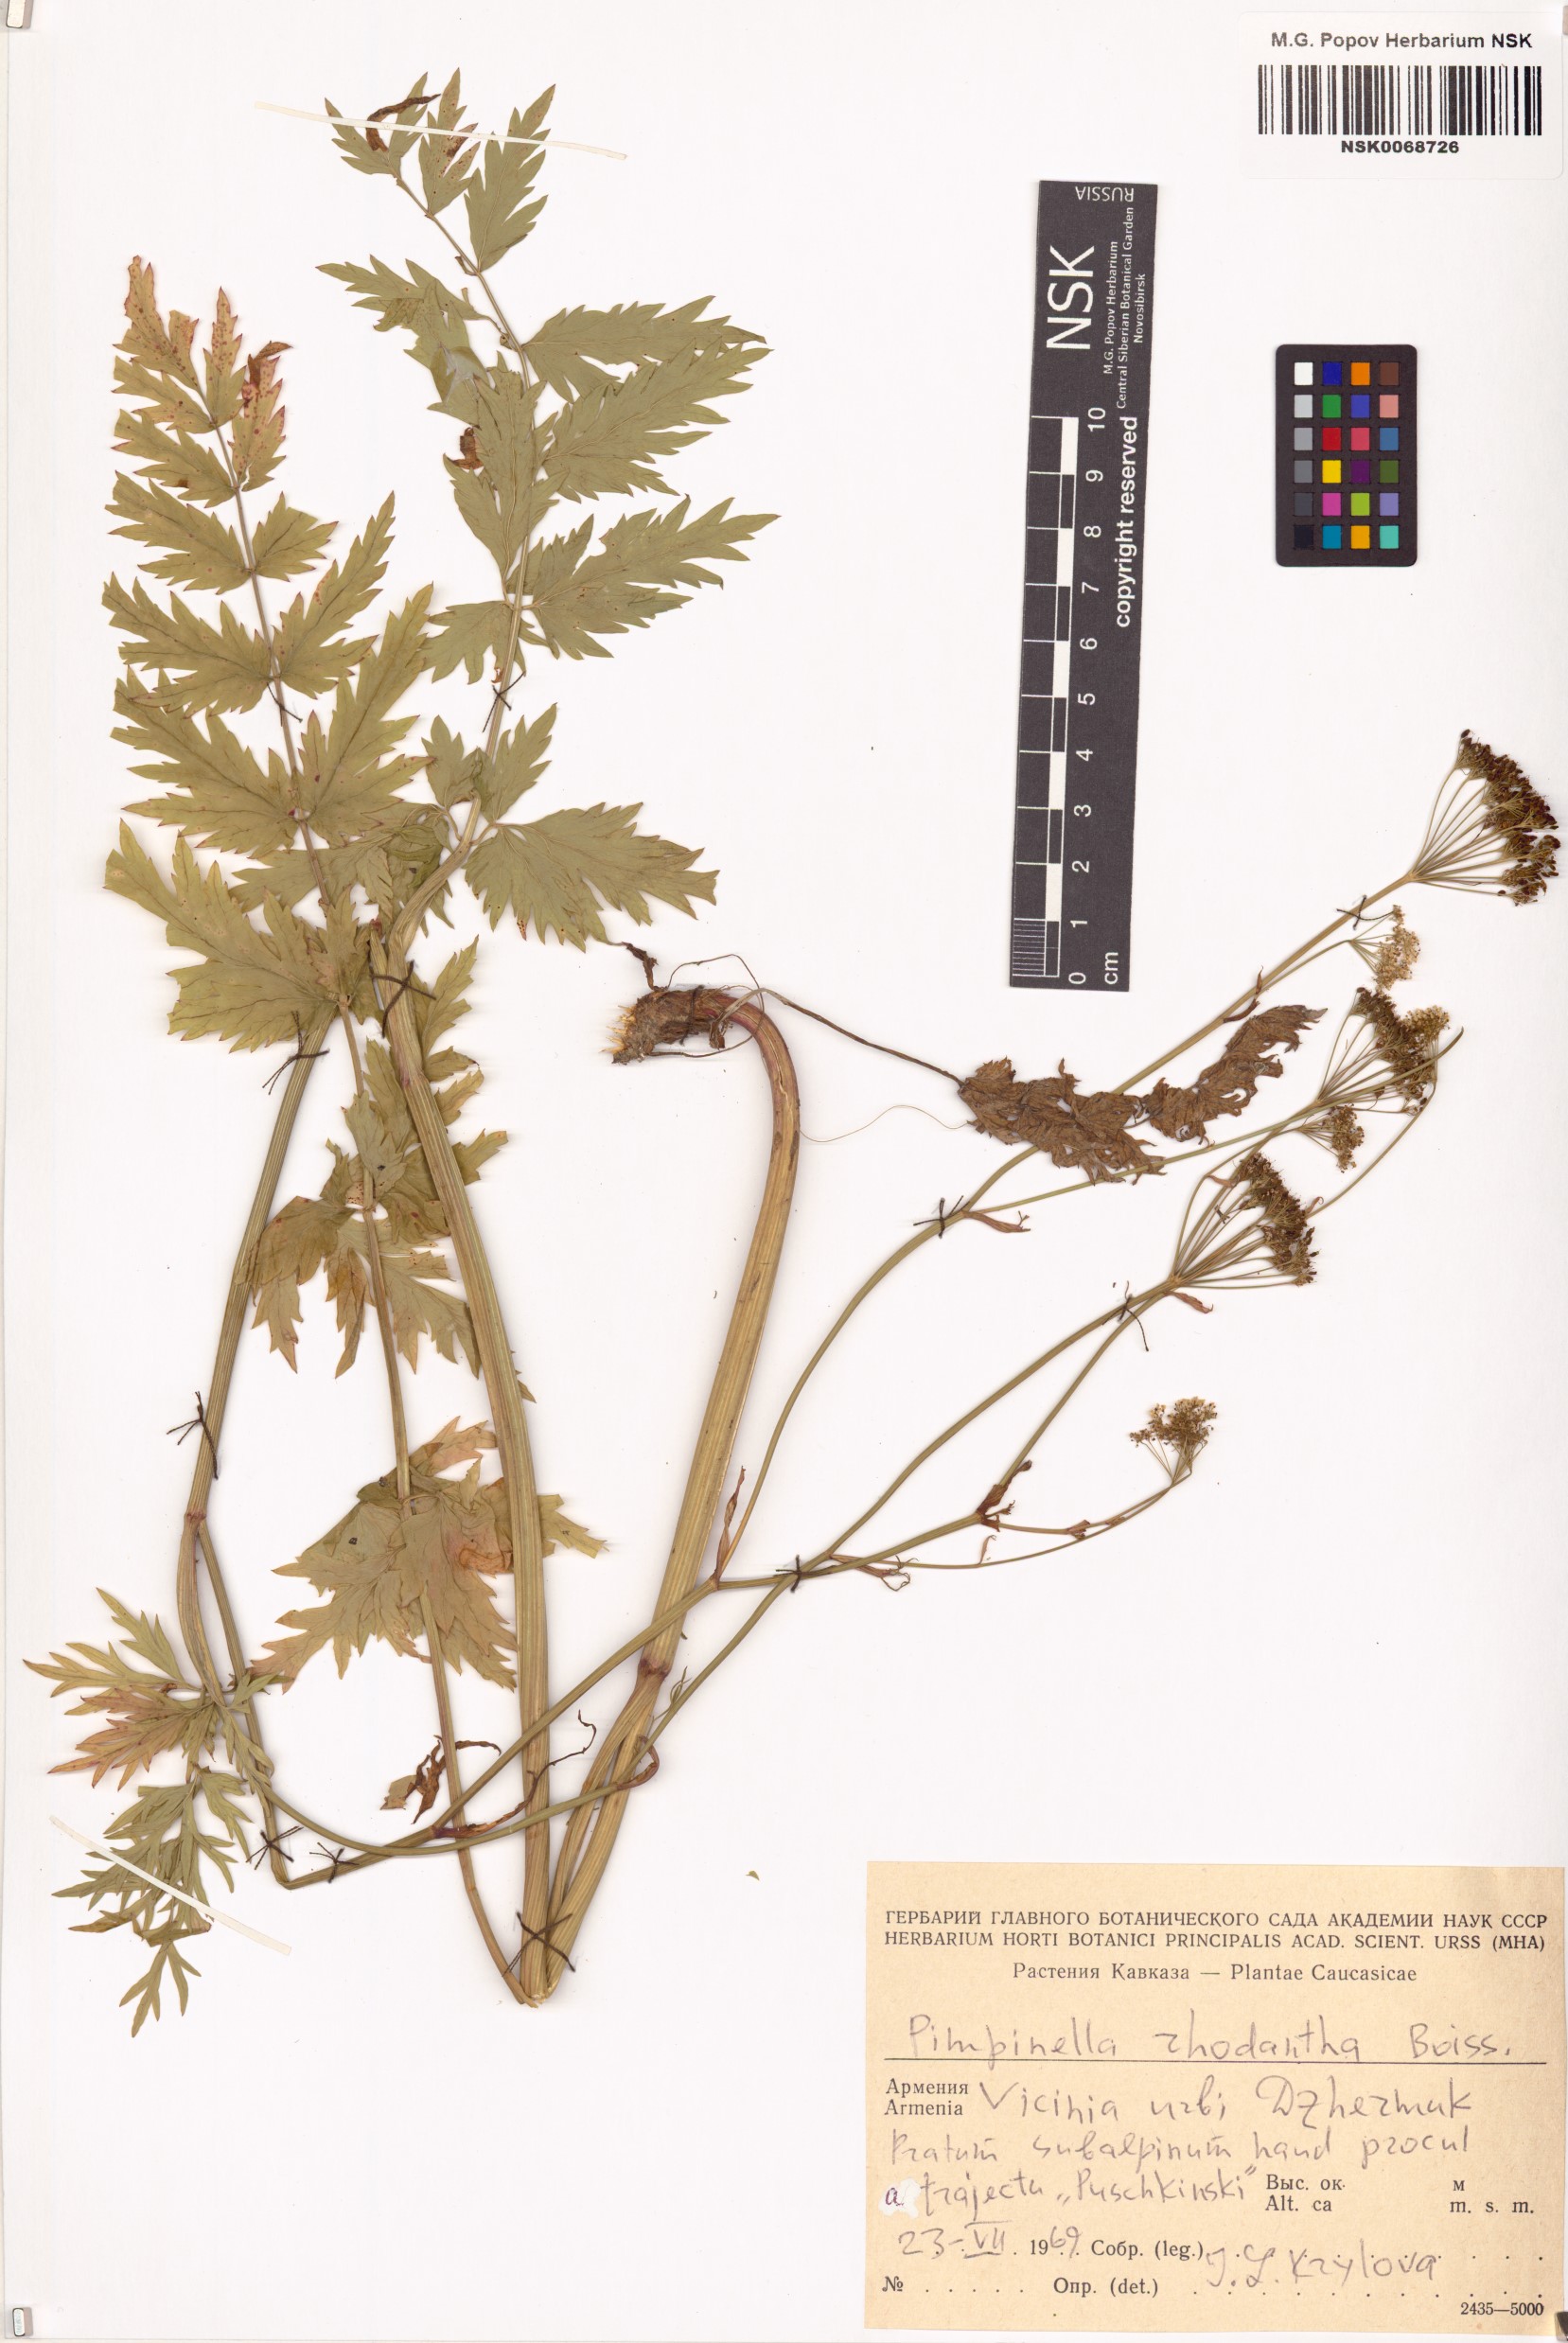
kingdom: Plantae
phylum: Tracheophyta
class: Magnoliopsida
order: Apiales
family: Apiaceae
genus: Pimpinella
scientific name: Pimpinella rhodantha
